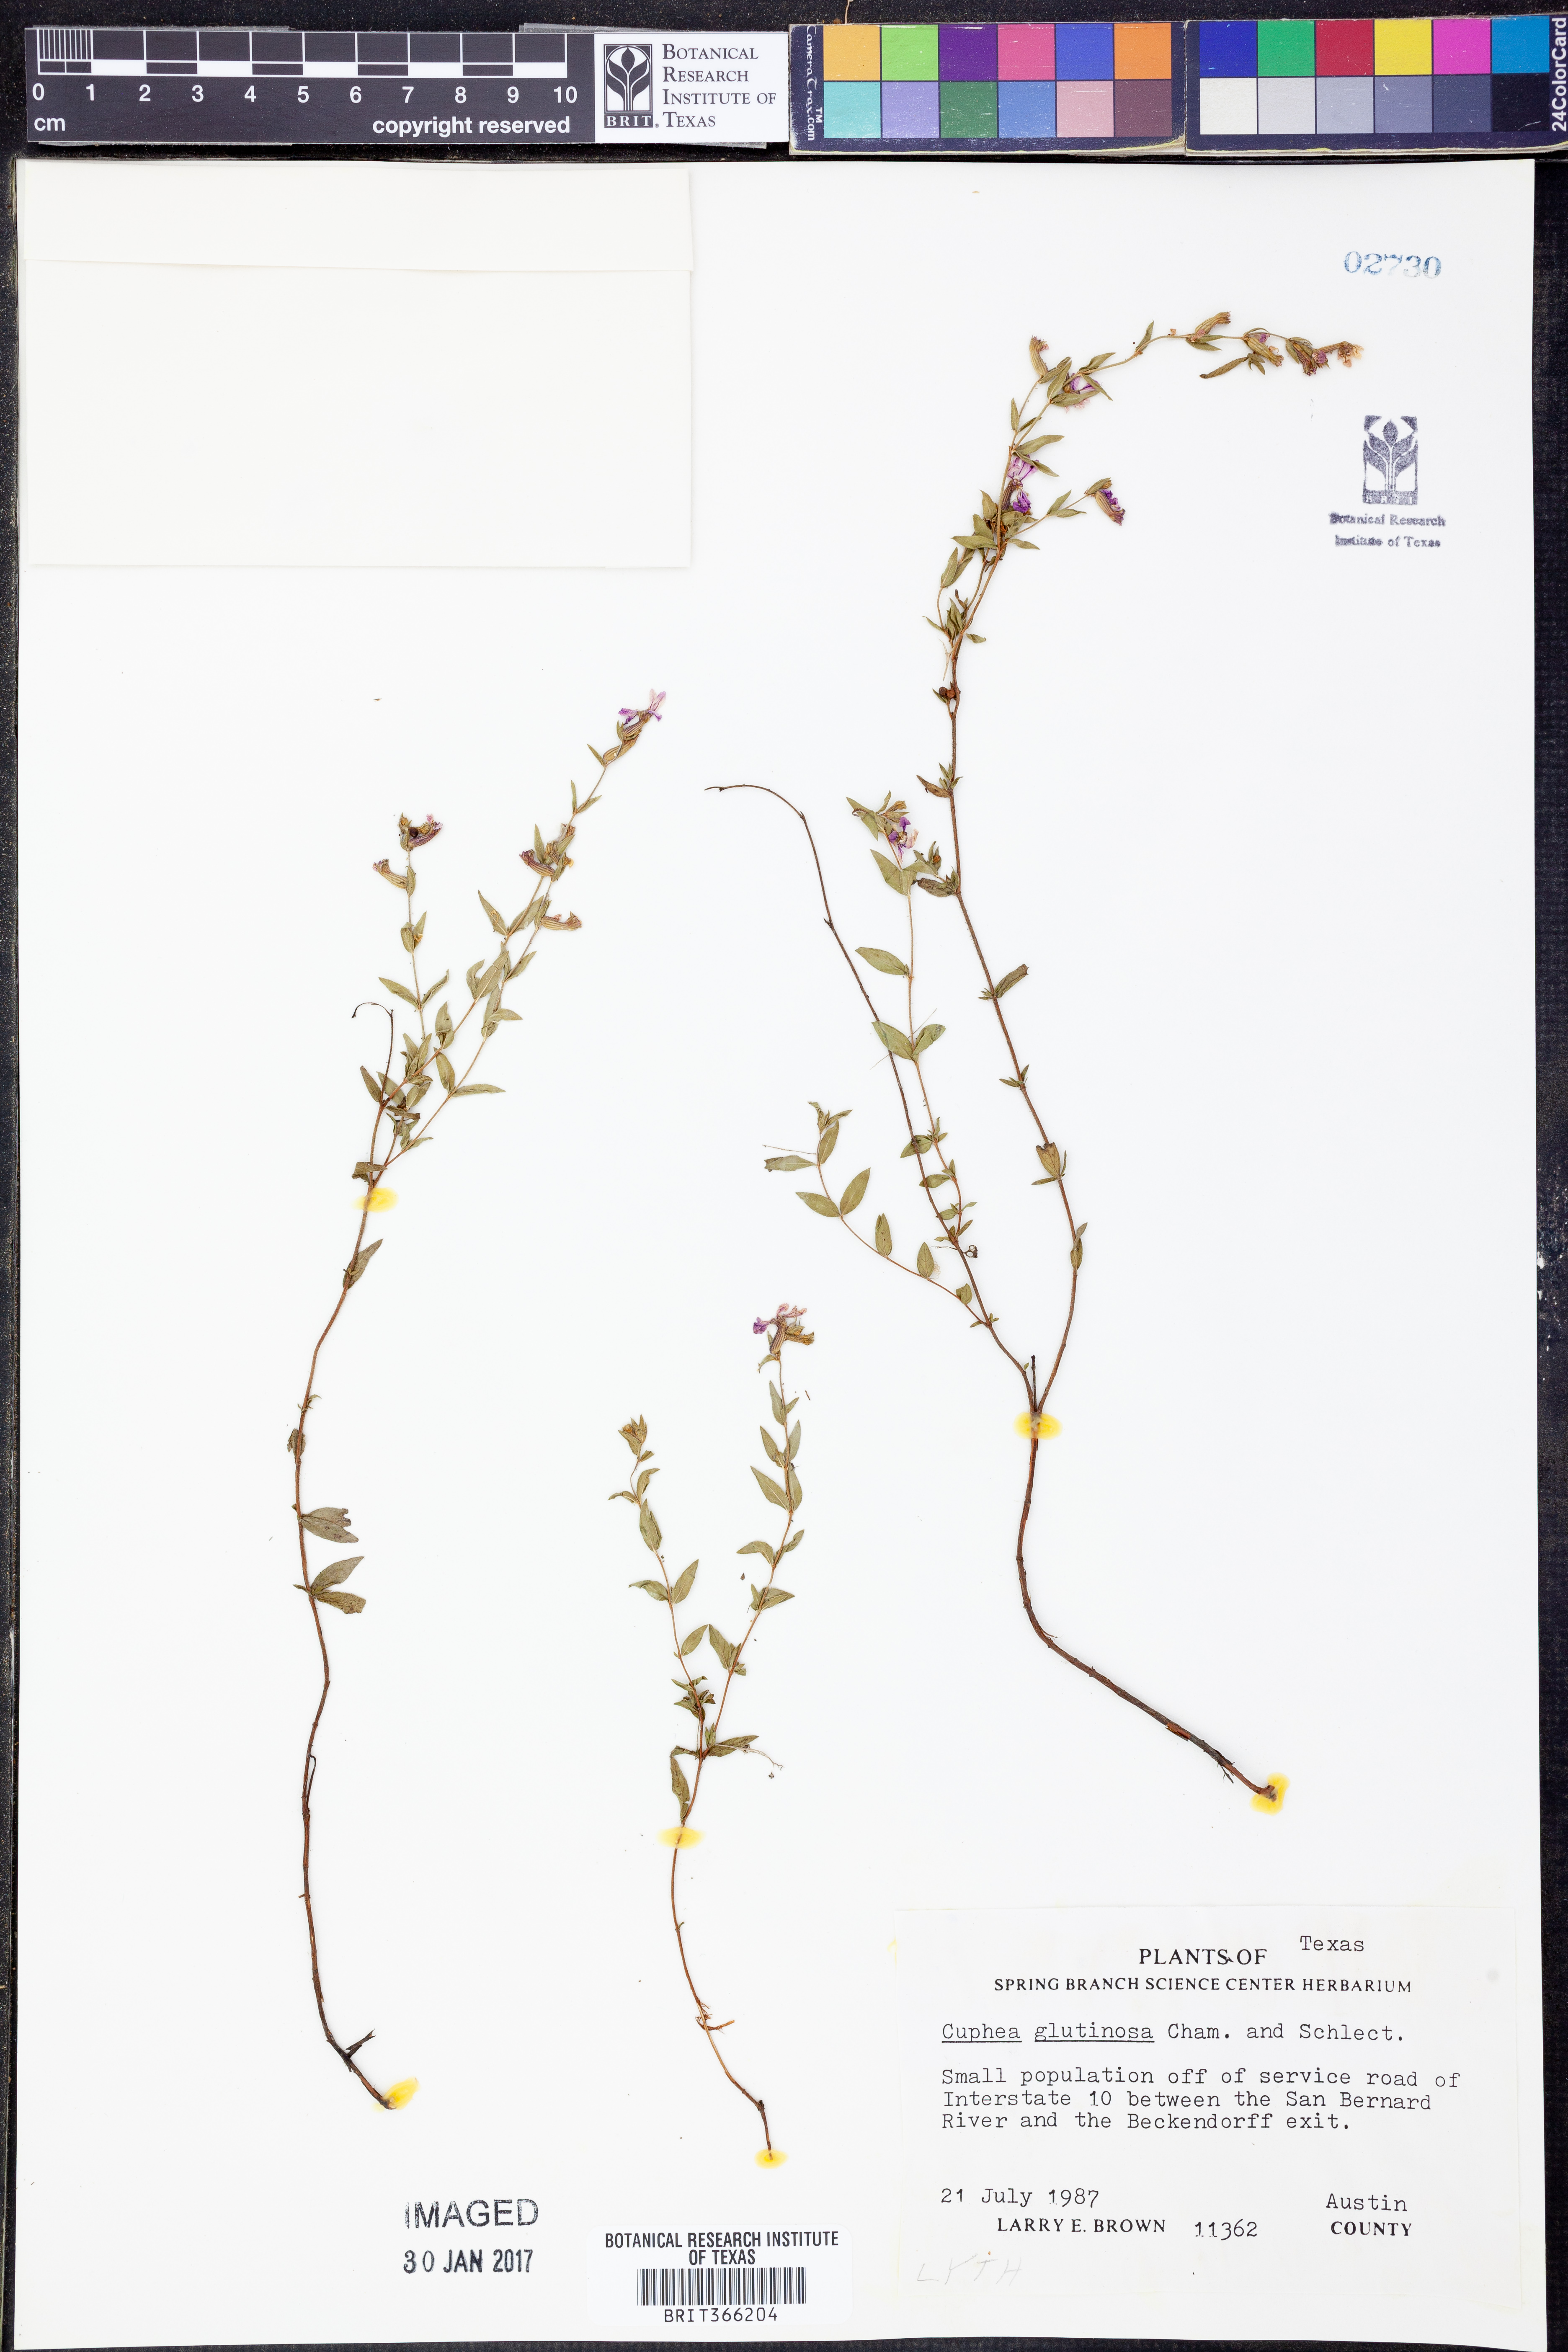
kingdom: Plantae
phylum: Tracheophyta
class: Magnoliopsida
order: Myrtales
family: Lythraceae
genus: Cuphea
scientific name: Cuphea glutinosa
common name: Sticky waxweed
